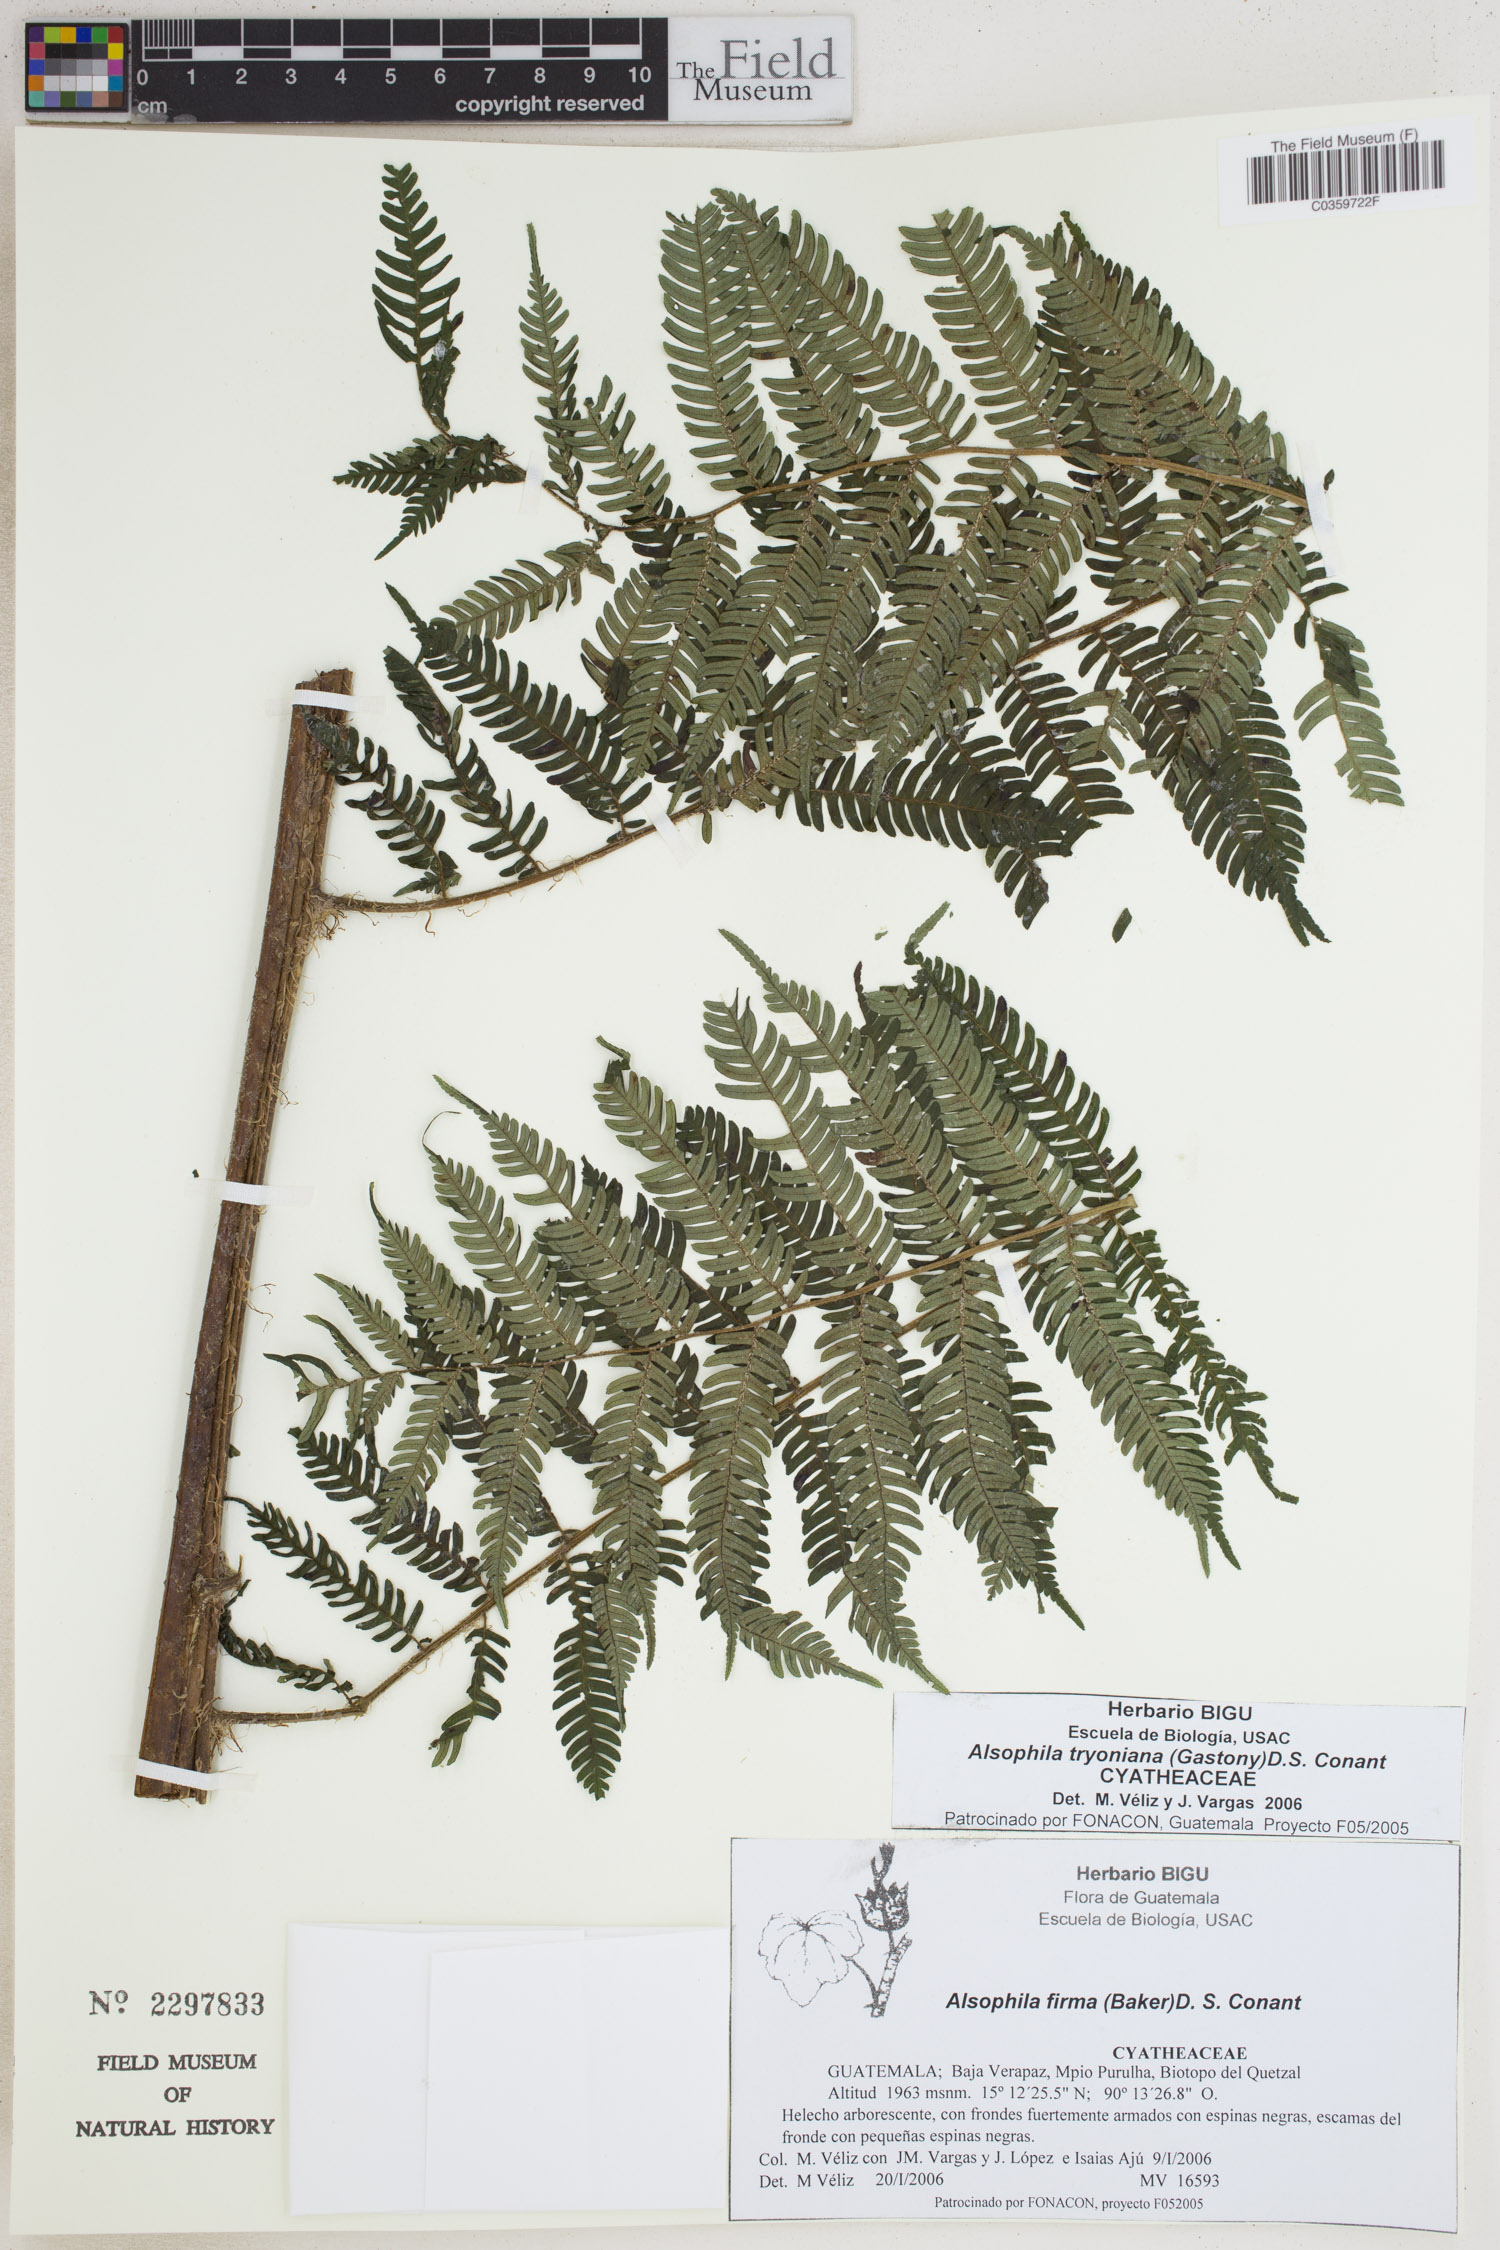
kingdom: Plantae
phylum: Tracheophyta
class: Polypodiopsida
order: Cyatheales
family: Cyatheaceae
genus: Alsophila
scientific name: Alsophila tryoniana
